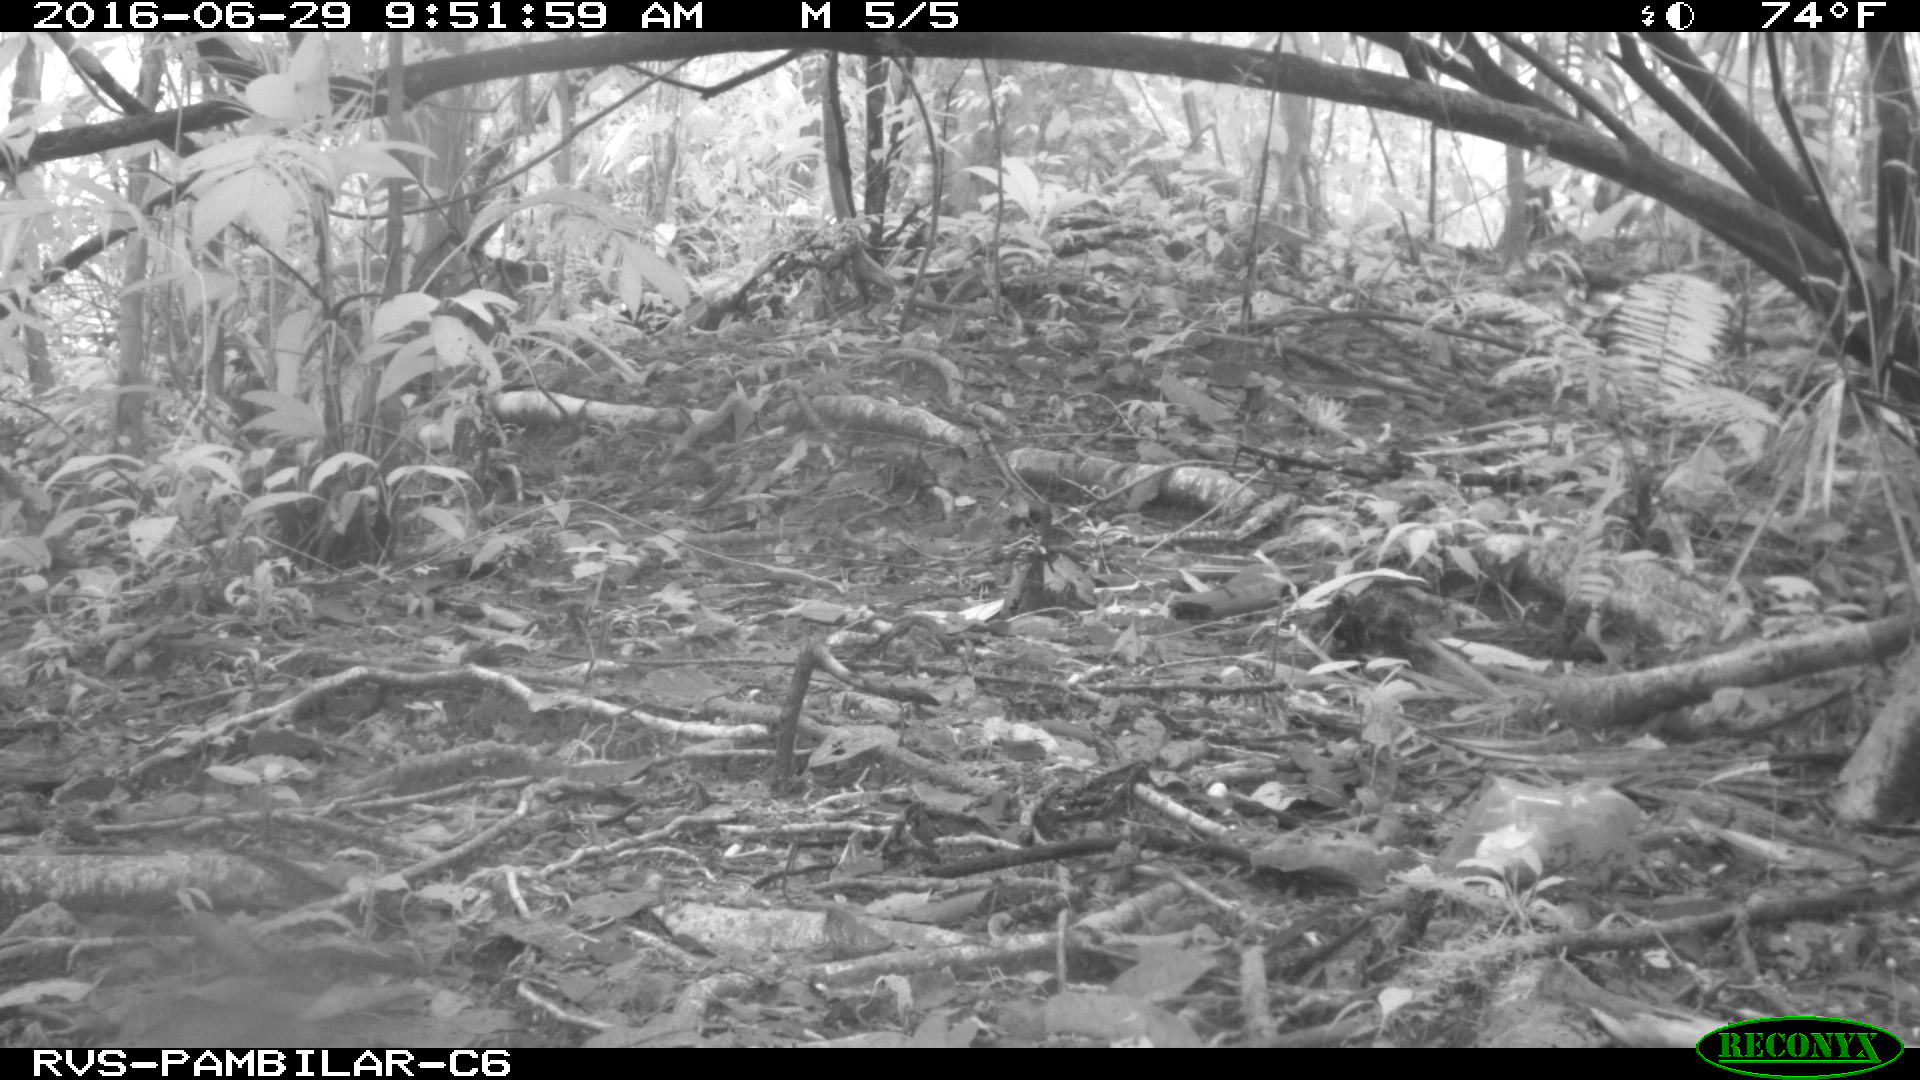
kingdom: Animalia
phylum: Chordata
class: Mammalia
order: Rodentia
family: Dasyproctidae
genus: Dasyprocta
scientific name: Dasyprocta punctata
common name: Central american agouti
